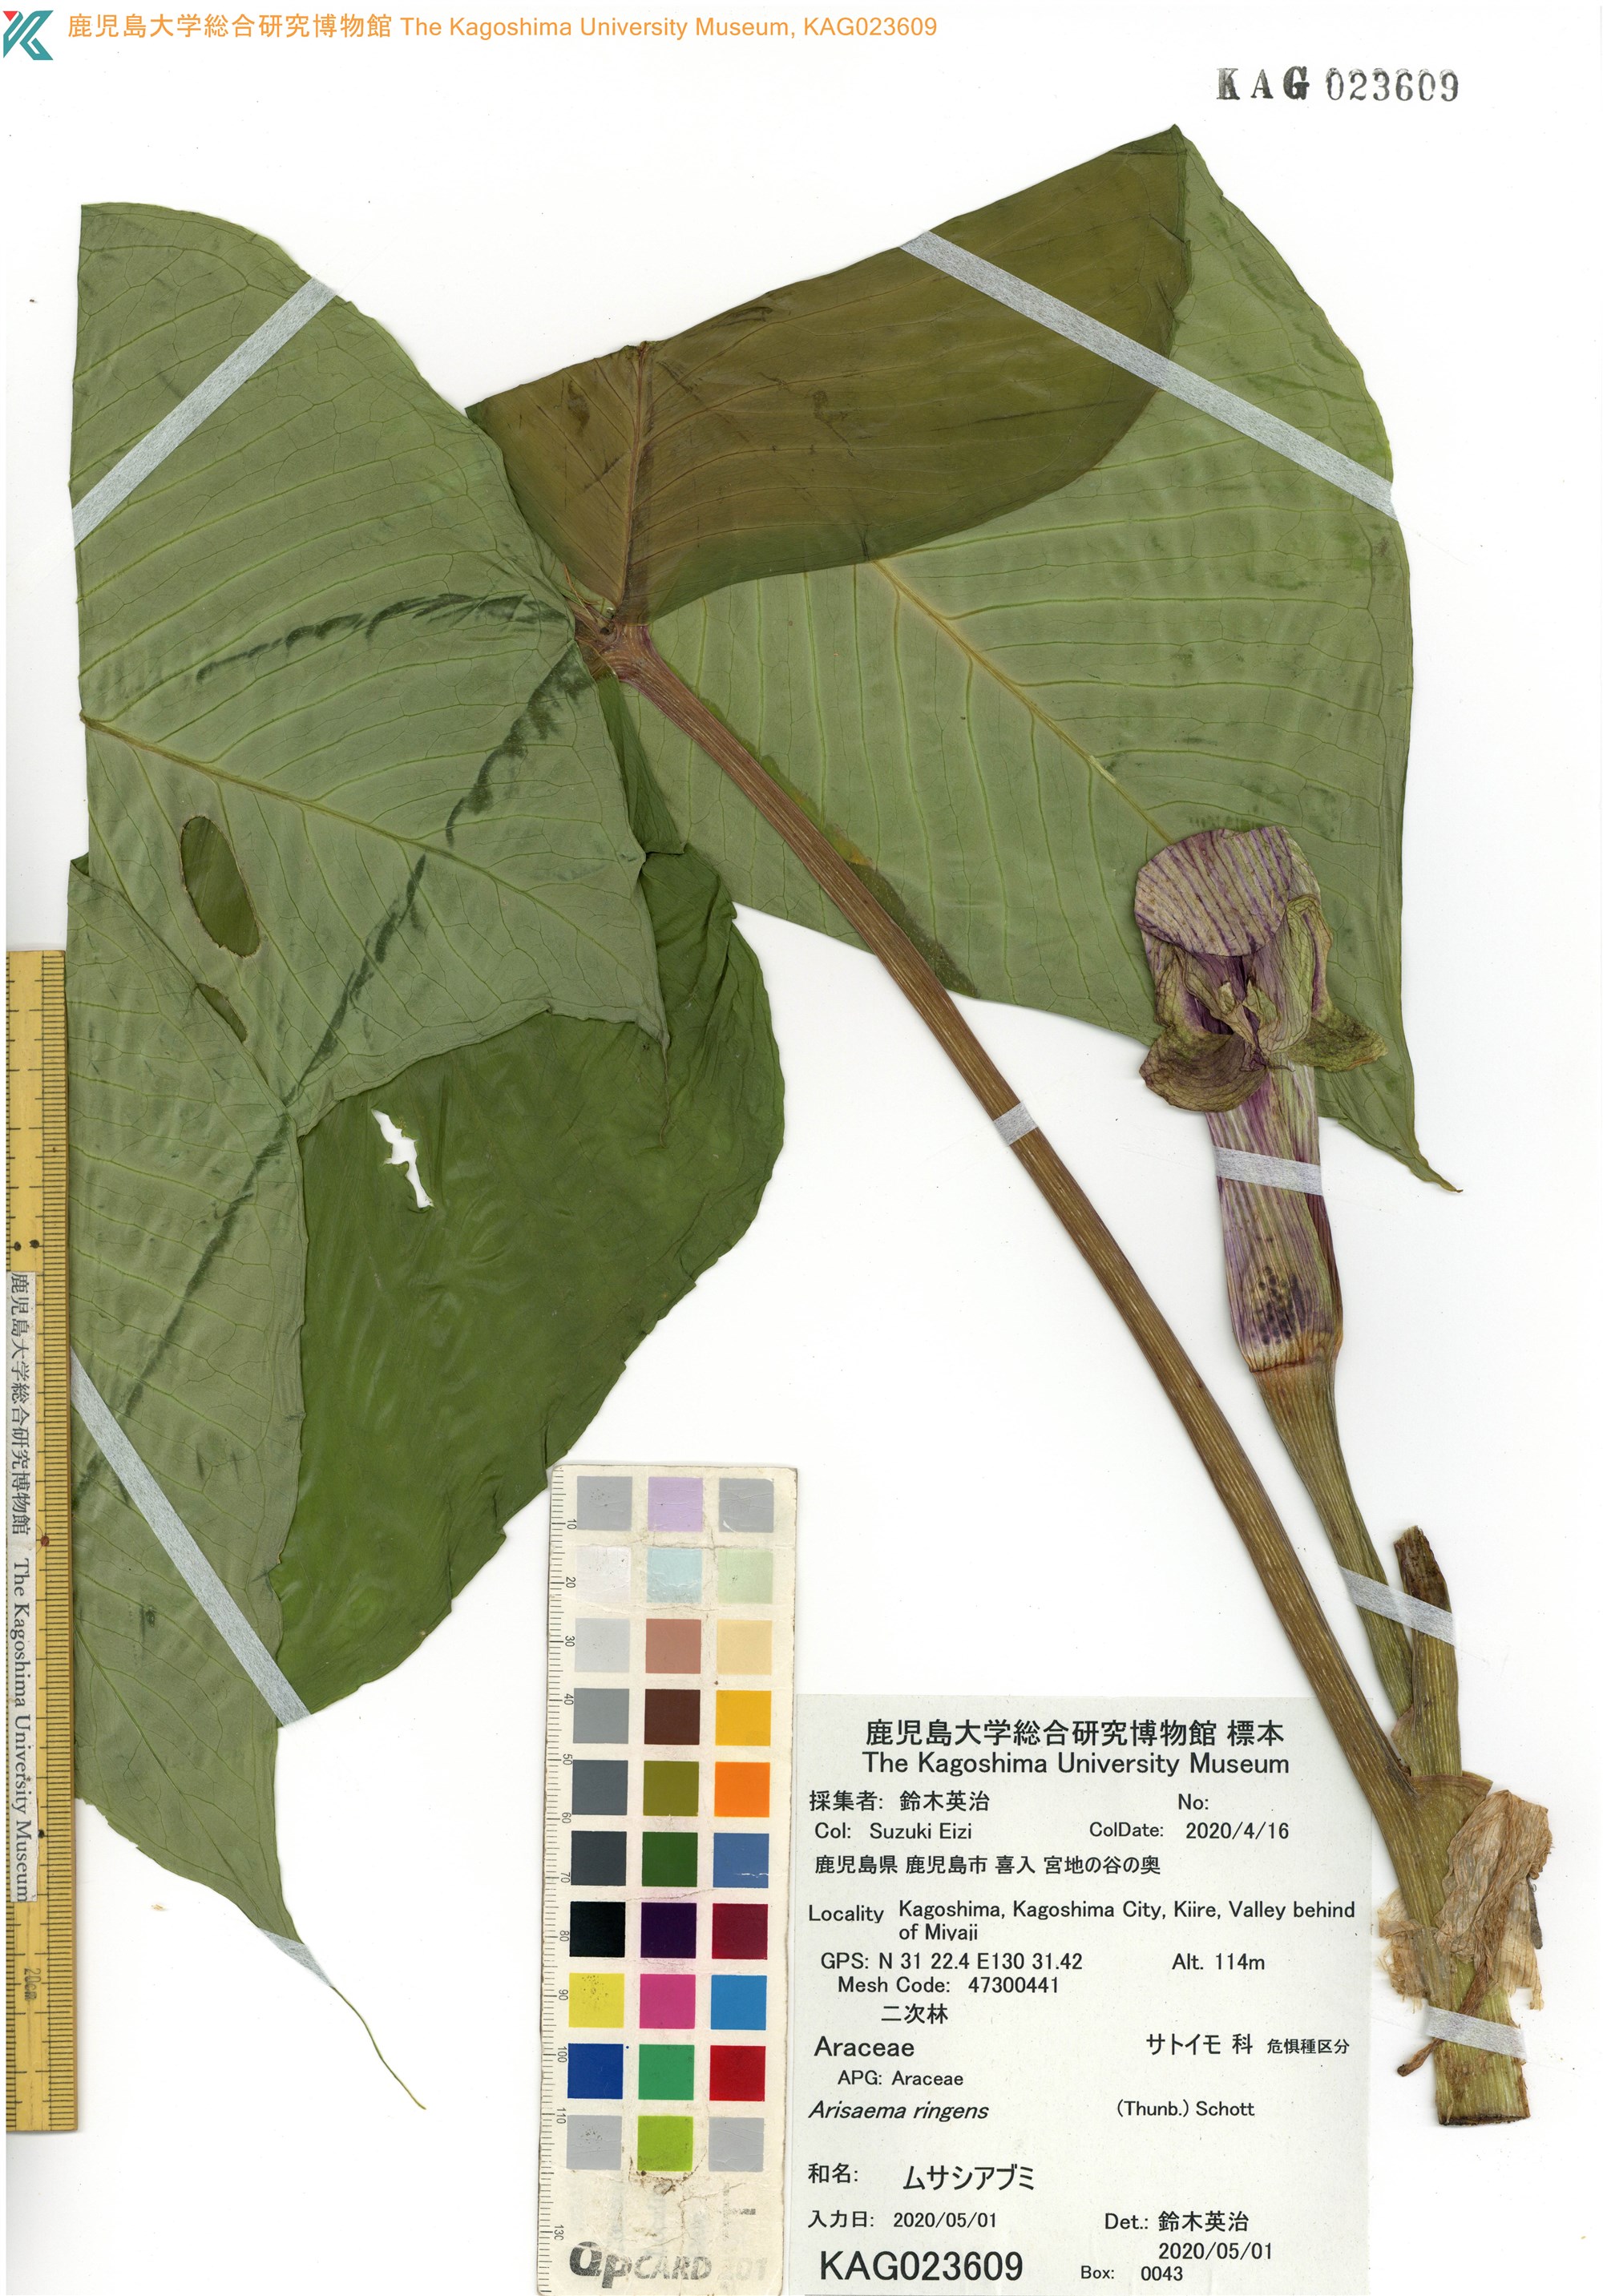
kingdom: Plantae
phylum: Tracheophyta
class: Liliopsida
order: Alismatales
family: Araceae
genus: Arisaema
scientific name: Arisaema ringens
